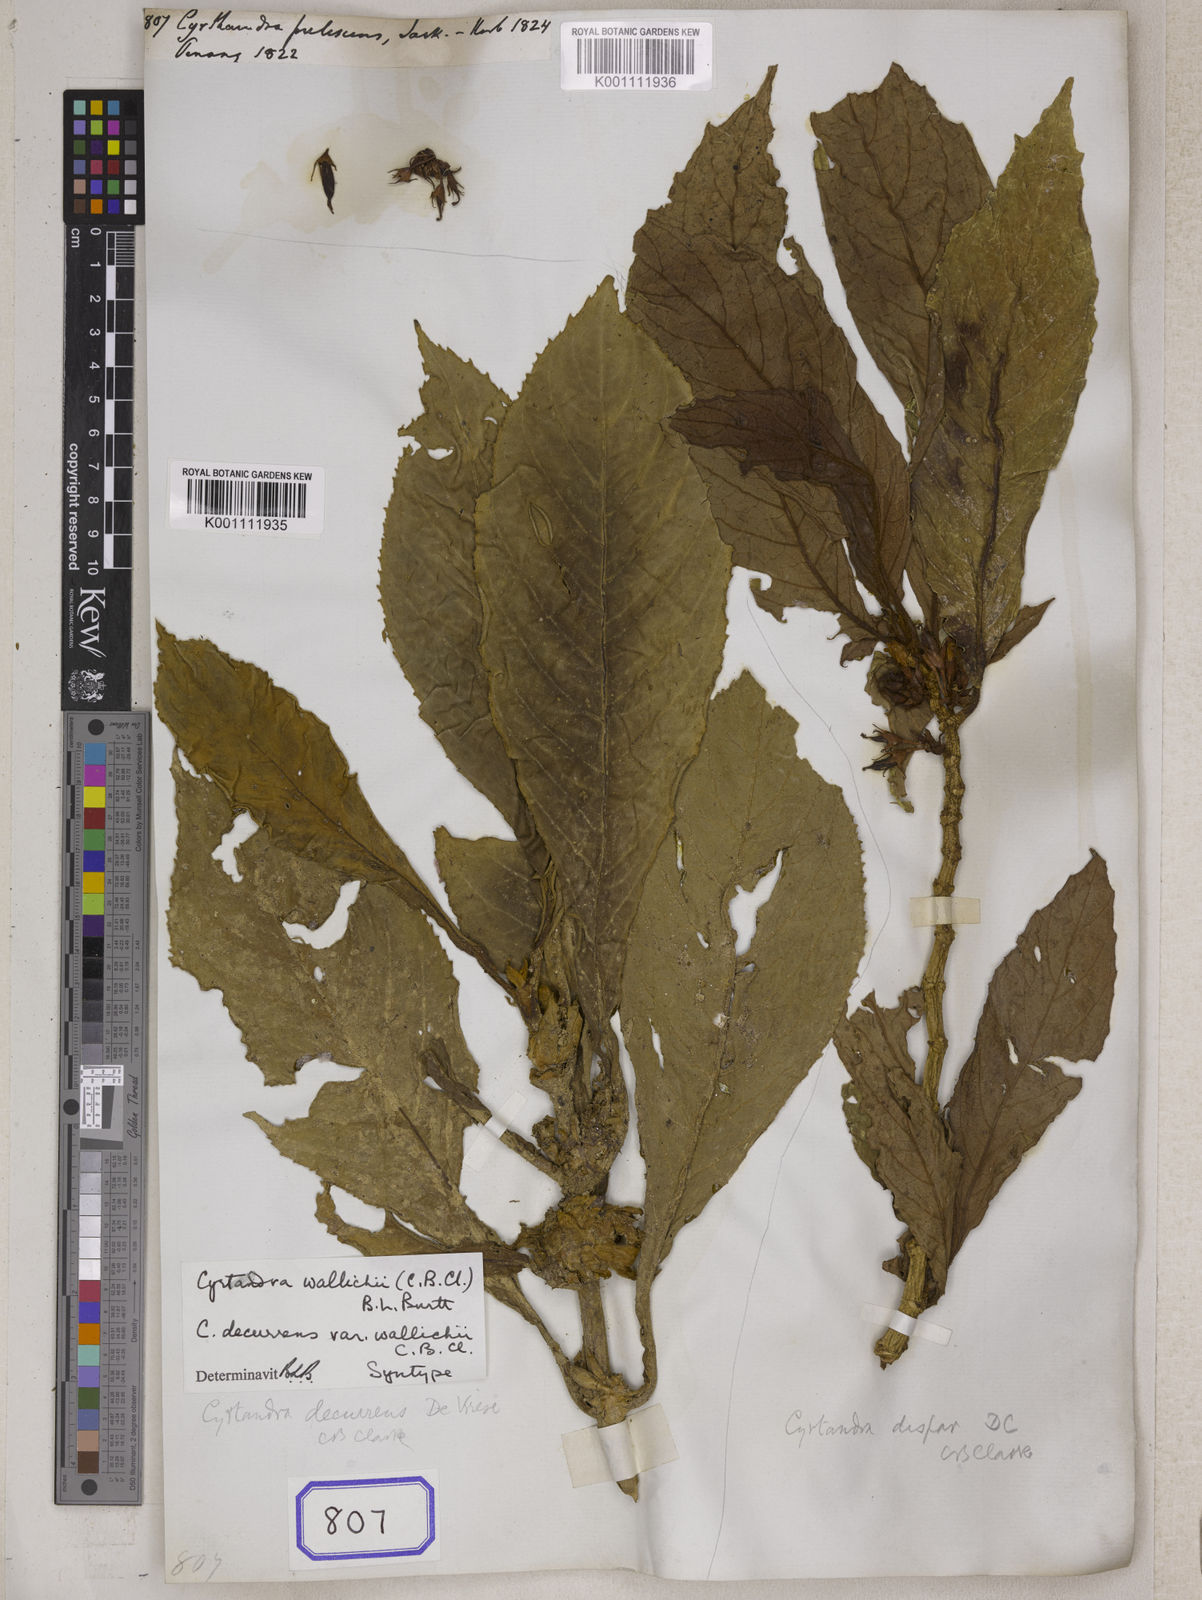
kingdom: Plantae
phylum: Tracheophyta
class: Magnoliopsida
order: Lamiales
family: Gesneriaceae
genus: Cyrtandra
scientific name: Cyrtandra frutescens
